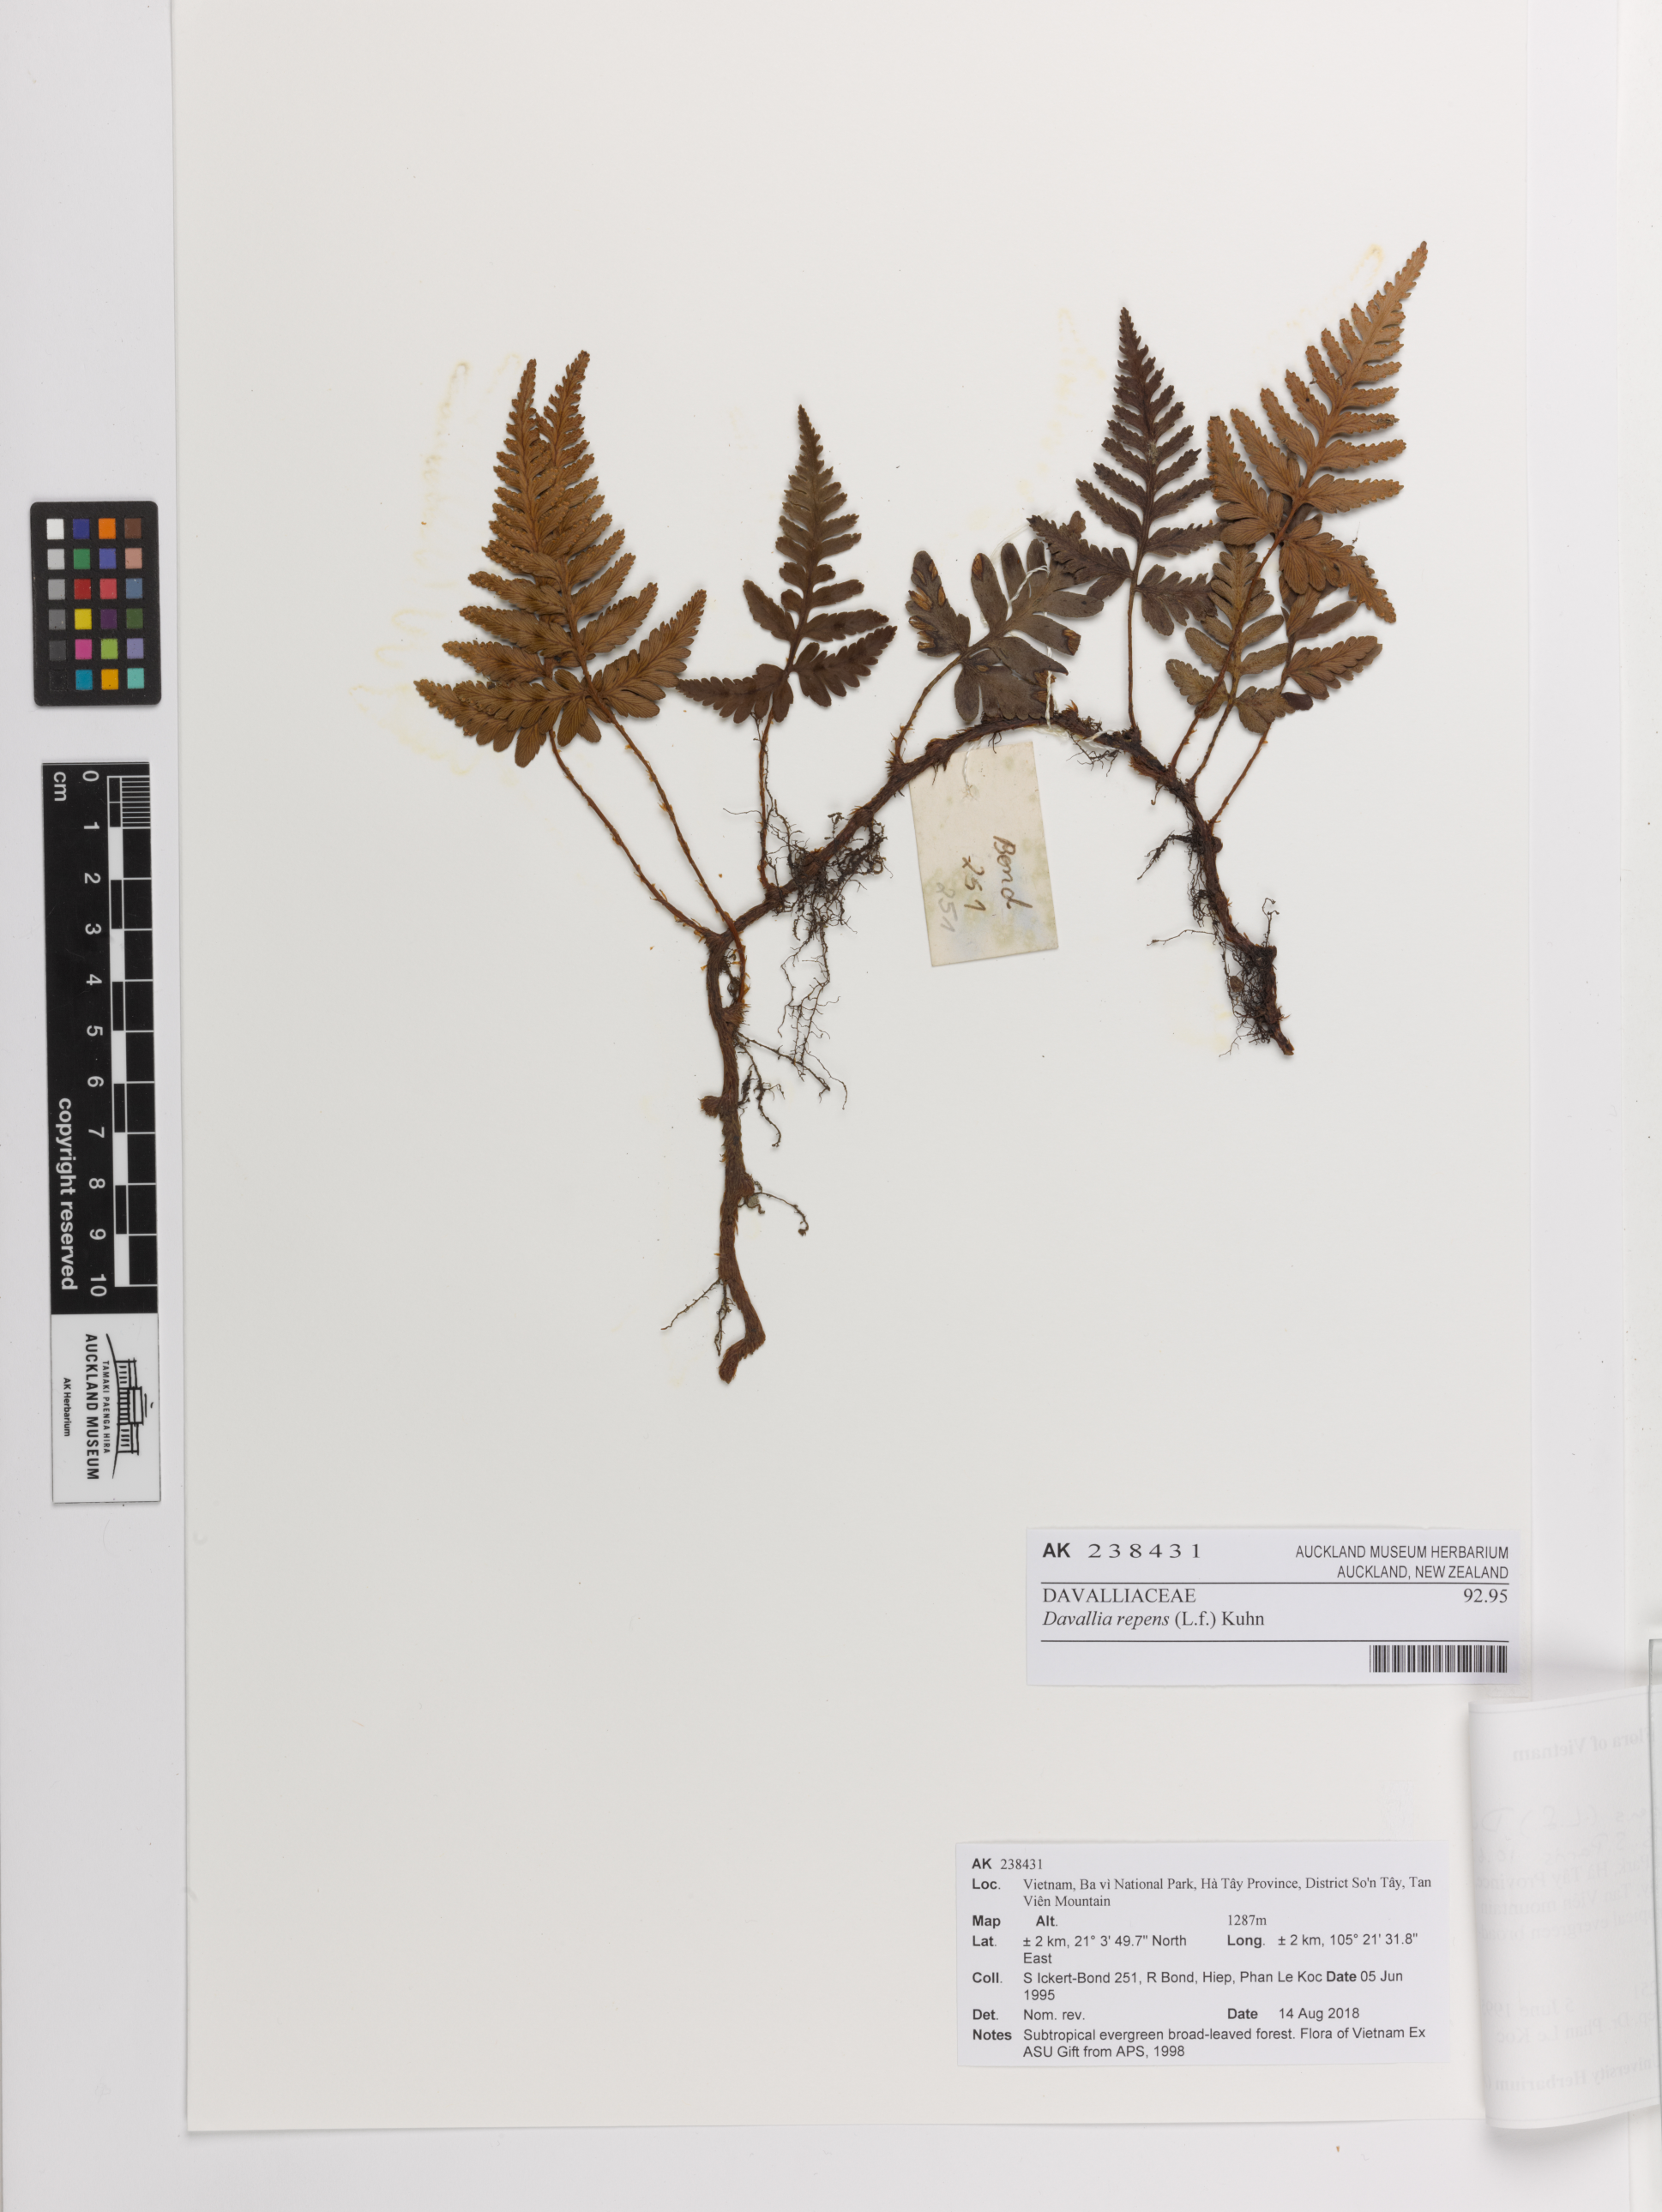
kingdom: Plantae
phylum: Tracheophyta
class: Polypodiopsida
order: Polypodiales
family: Davalliaceae
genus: Davallia
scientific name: Davallia repens
